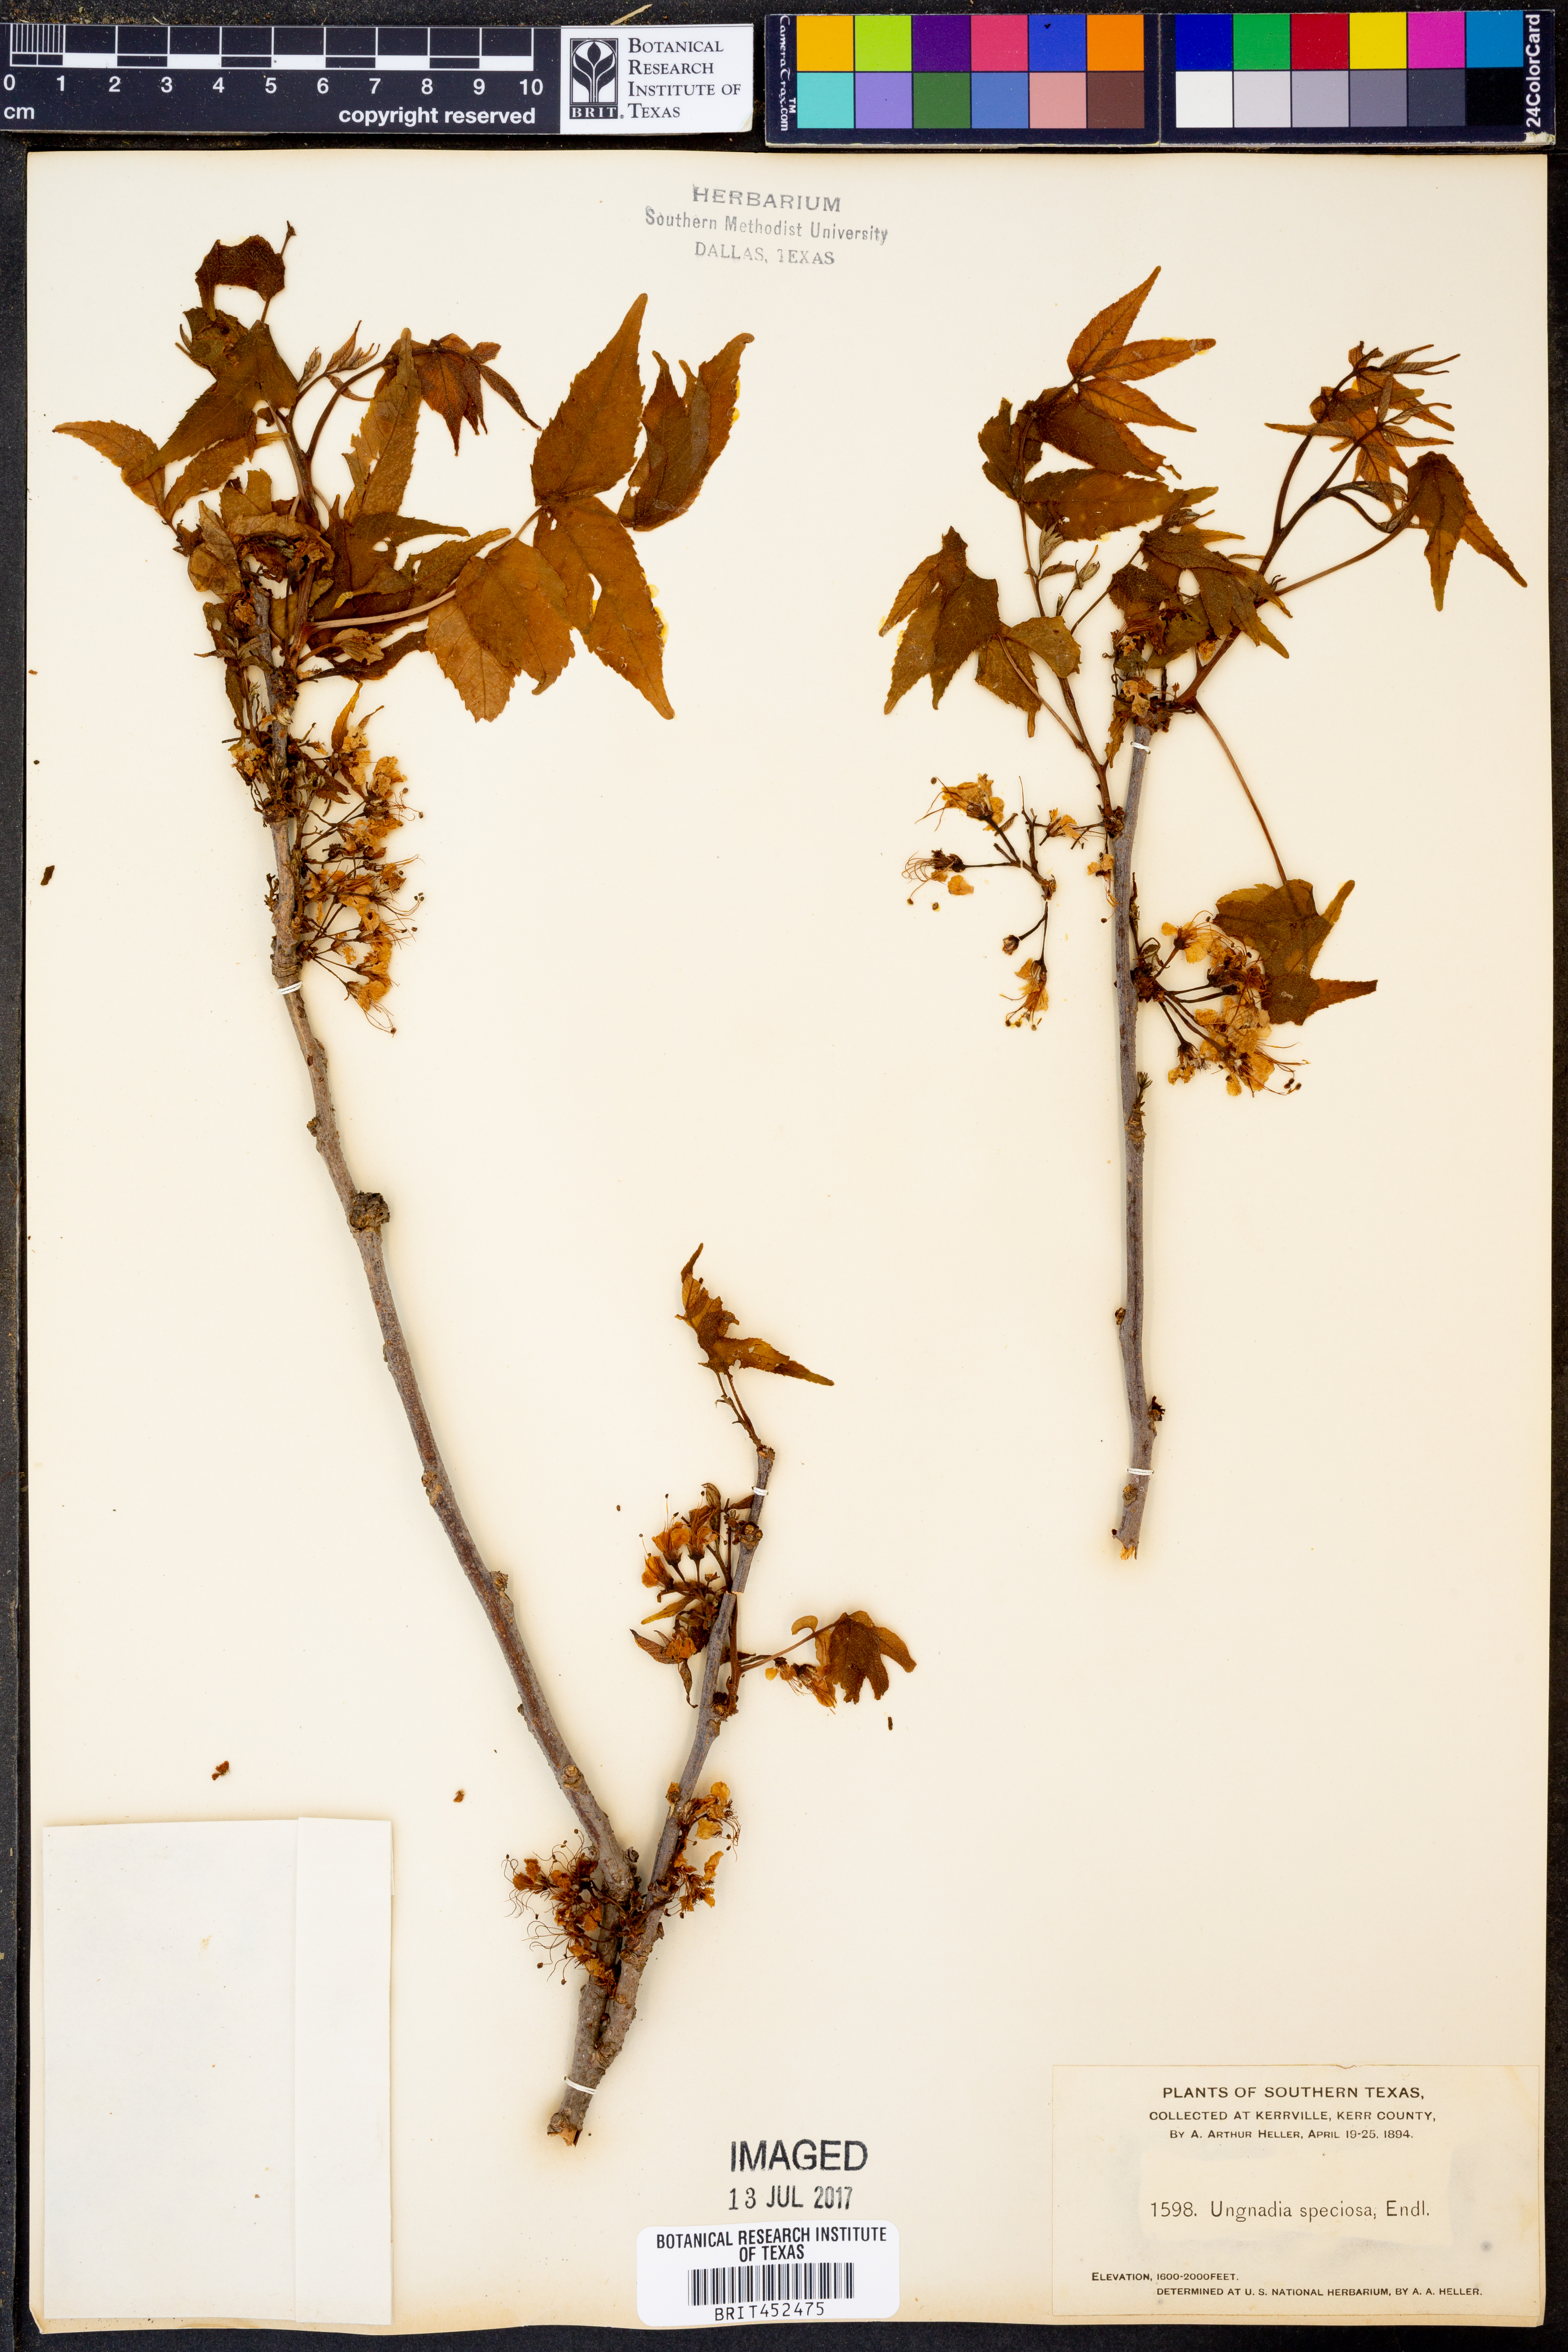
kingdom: Plantae
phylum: Tracheophyta
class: Magnoliopsida
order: Sapindales
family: Sapindaceae
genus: Ungnadia
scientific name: Ungnadia speciosa
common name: Texas-buckeye
